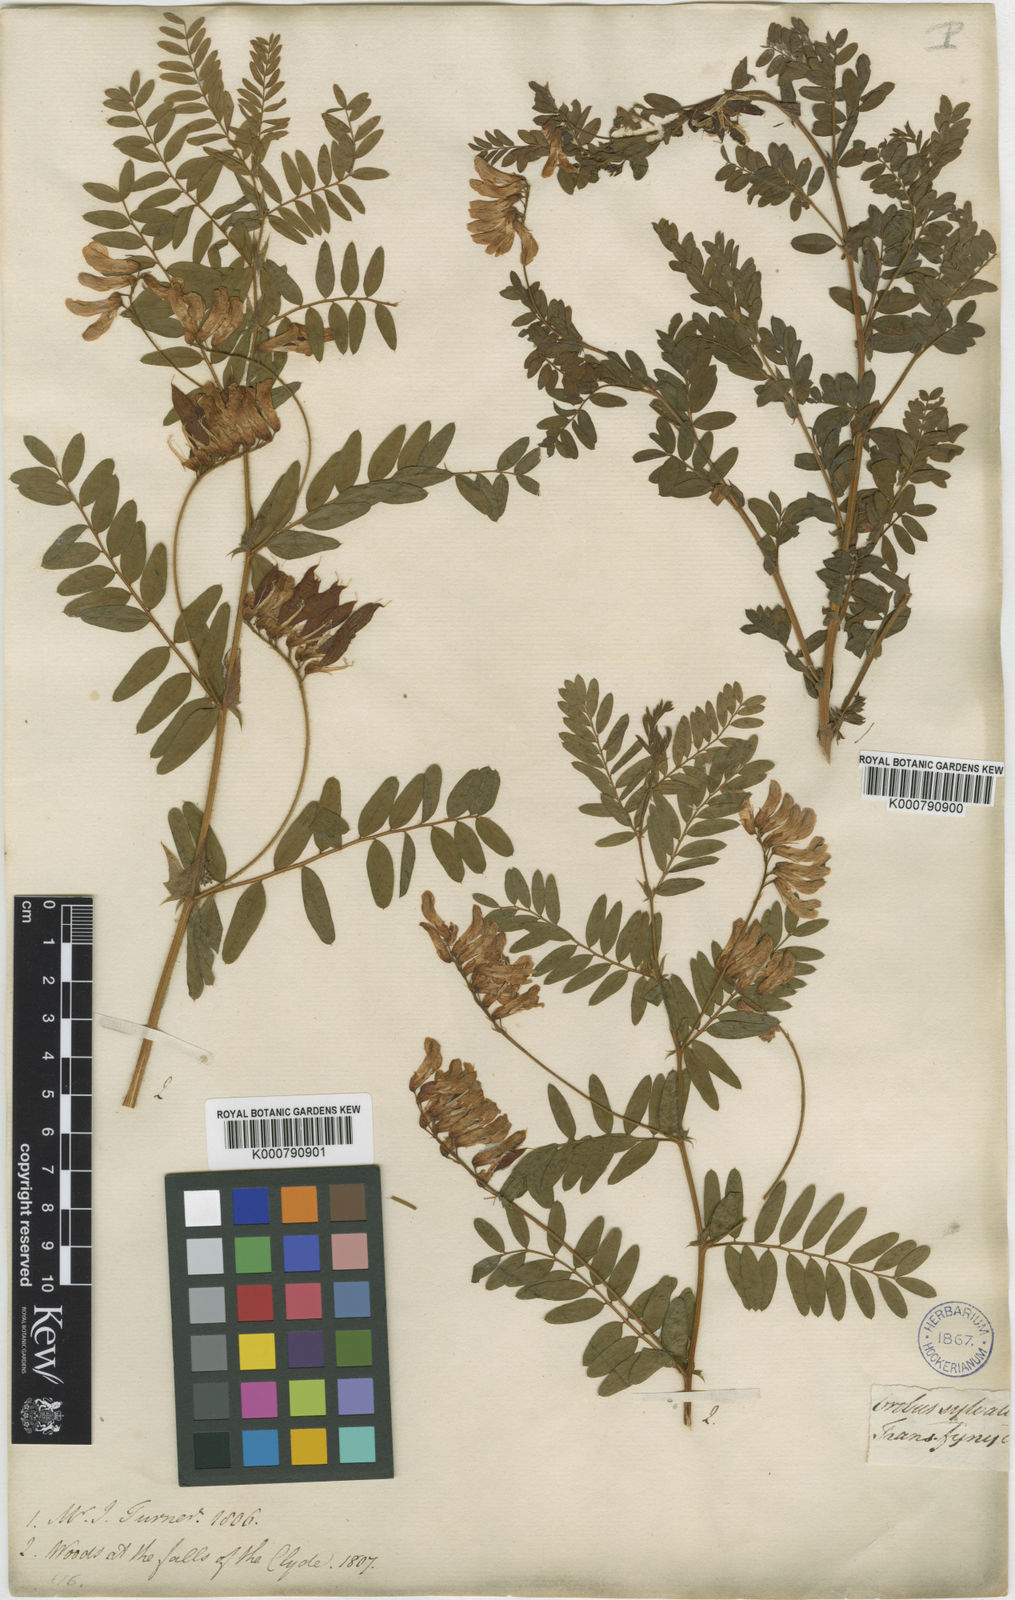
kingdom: Plantae
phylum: Tracheophyta
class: Magnoliopsida
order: Fabales
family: Fabaceae
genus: Vicia
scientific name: Vicia orobus
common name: Wood bitter-vetch
